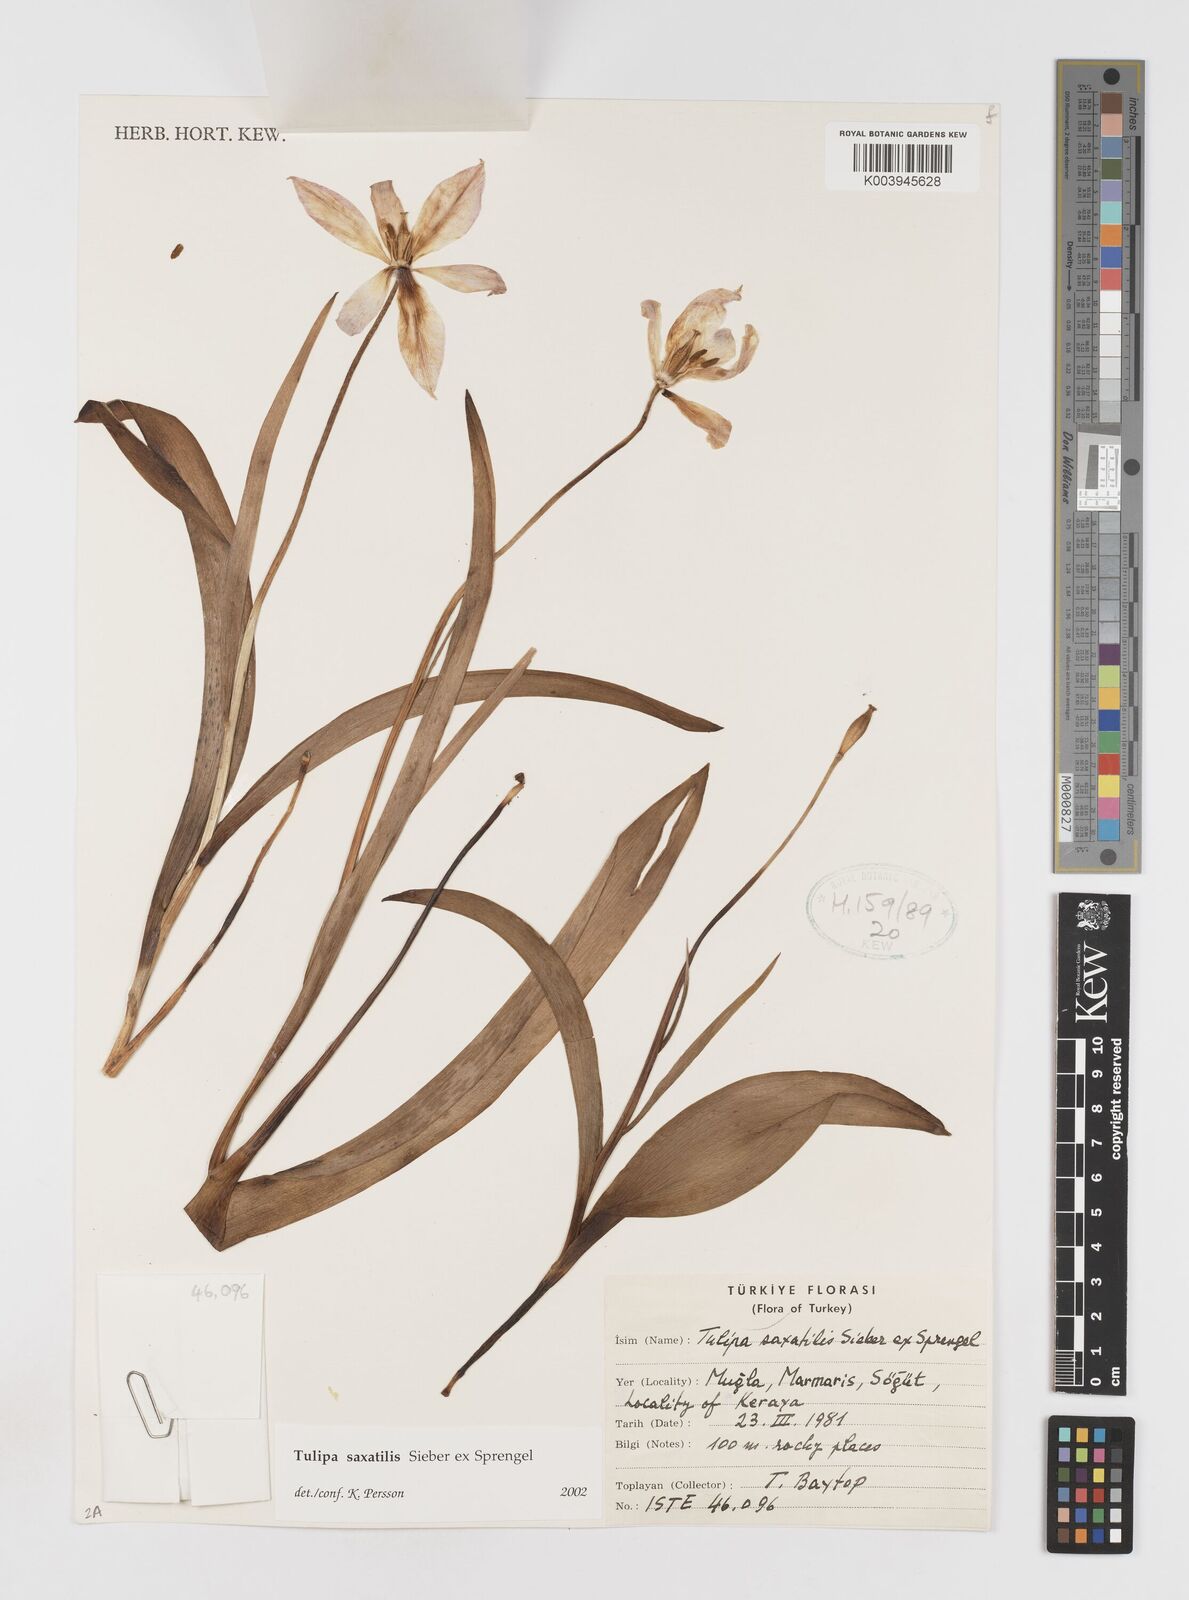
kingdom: Plantae
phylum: Tracheophyta
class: Liliopsida
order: Liliales
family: Liliaceae
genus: Tulipa
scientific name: Tulipa saxatilis
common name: Cretan tulip
